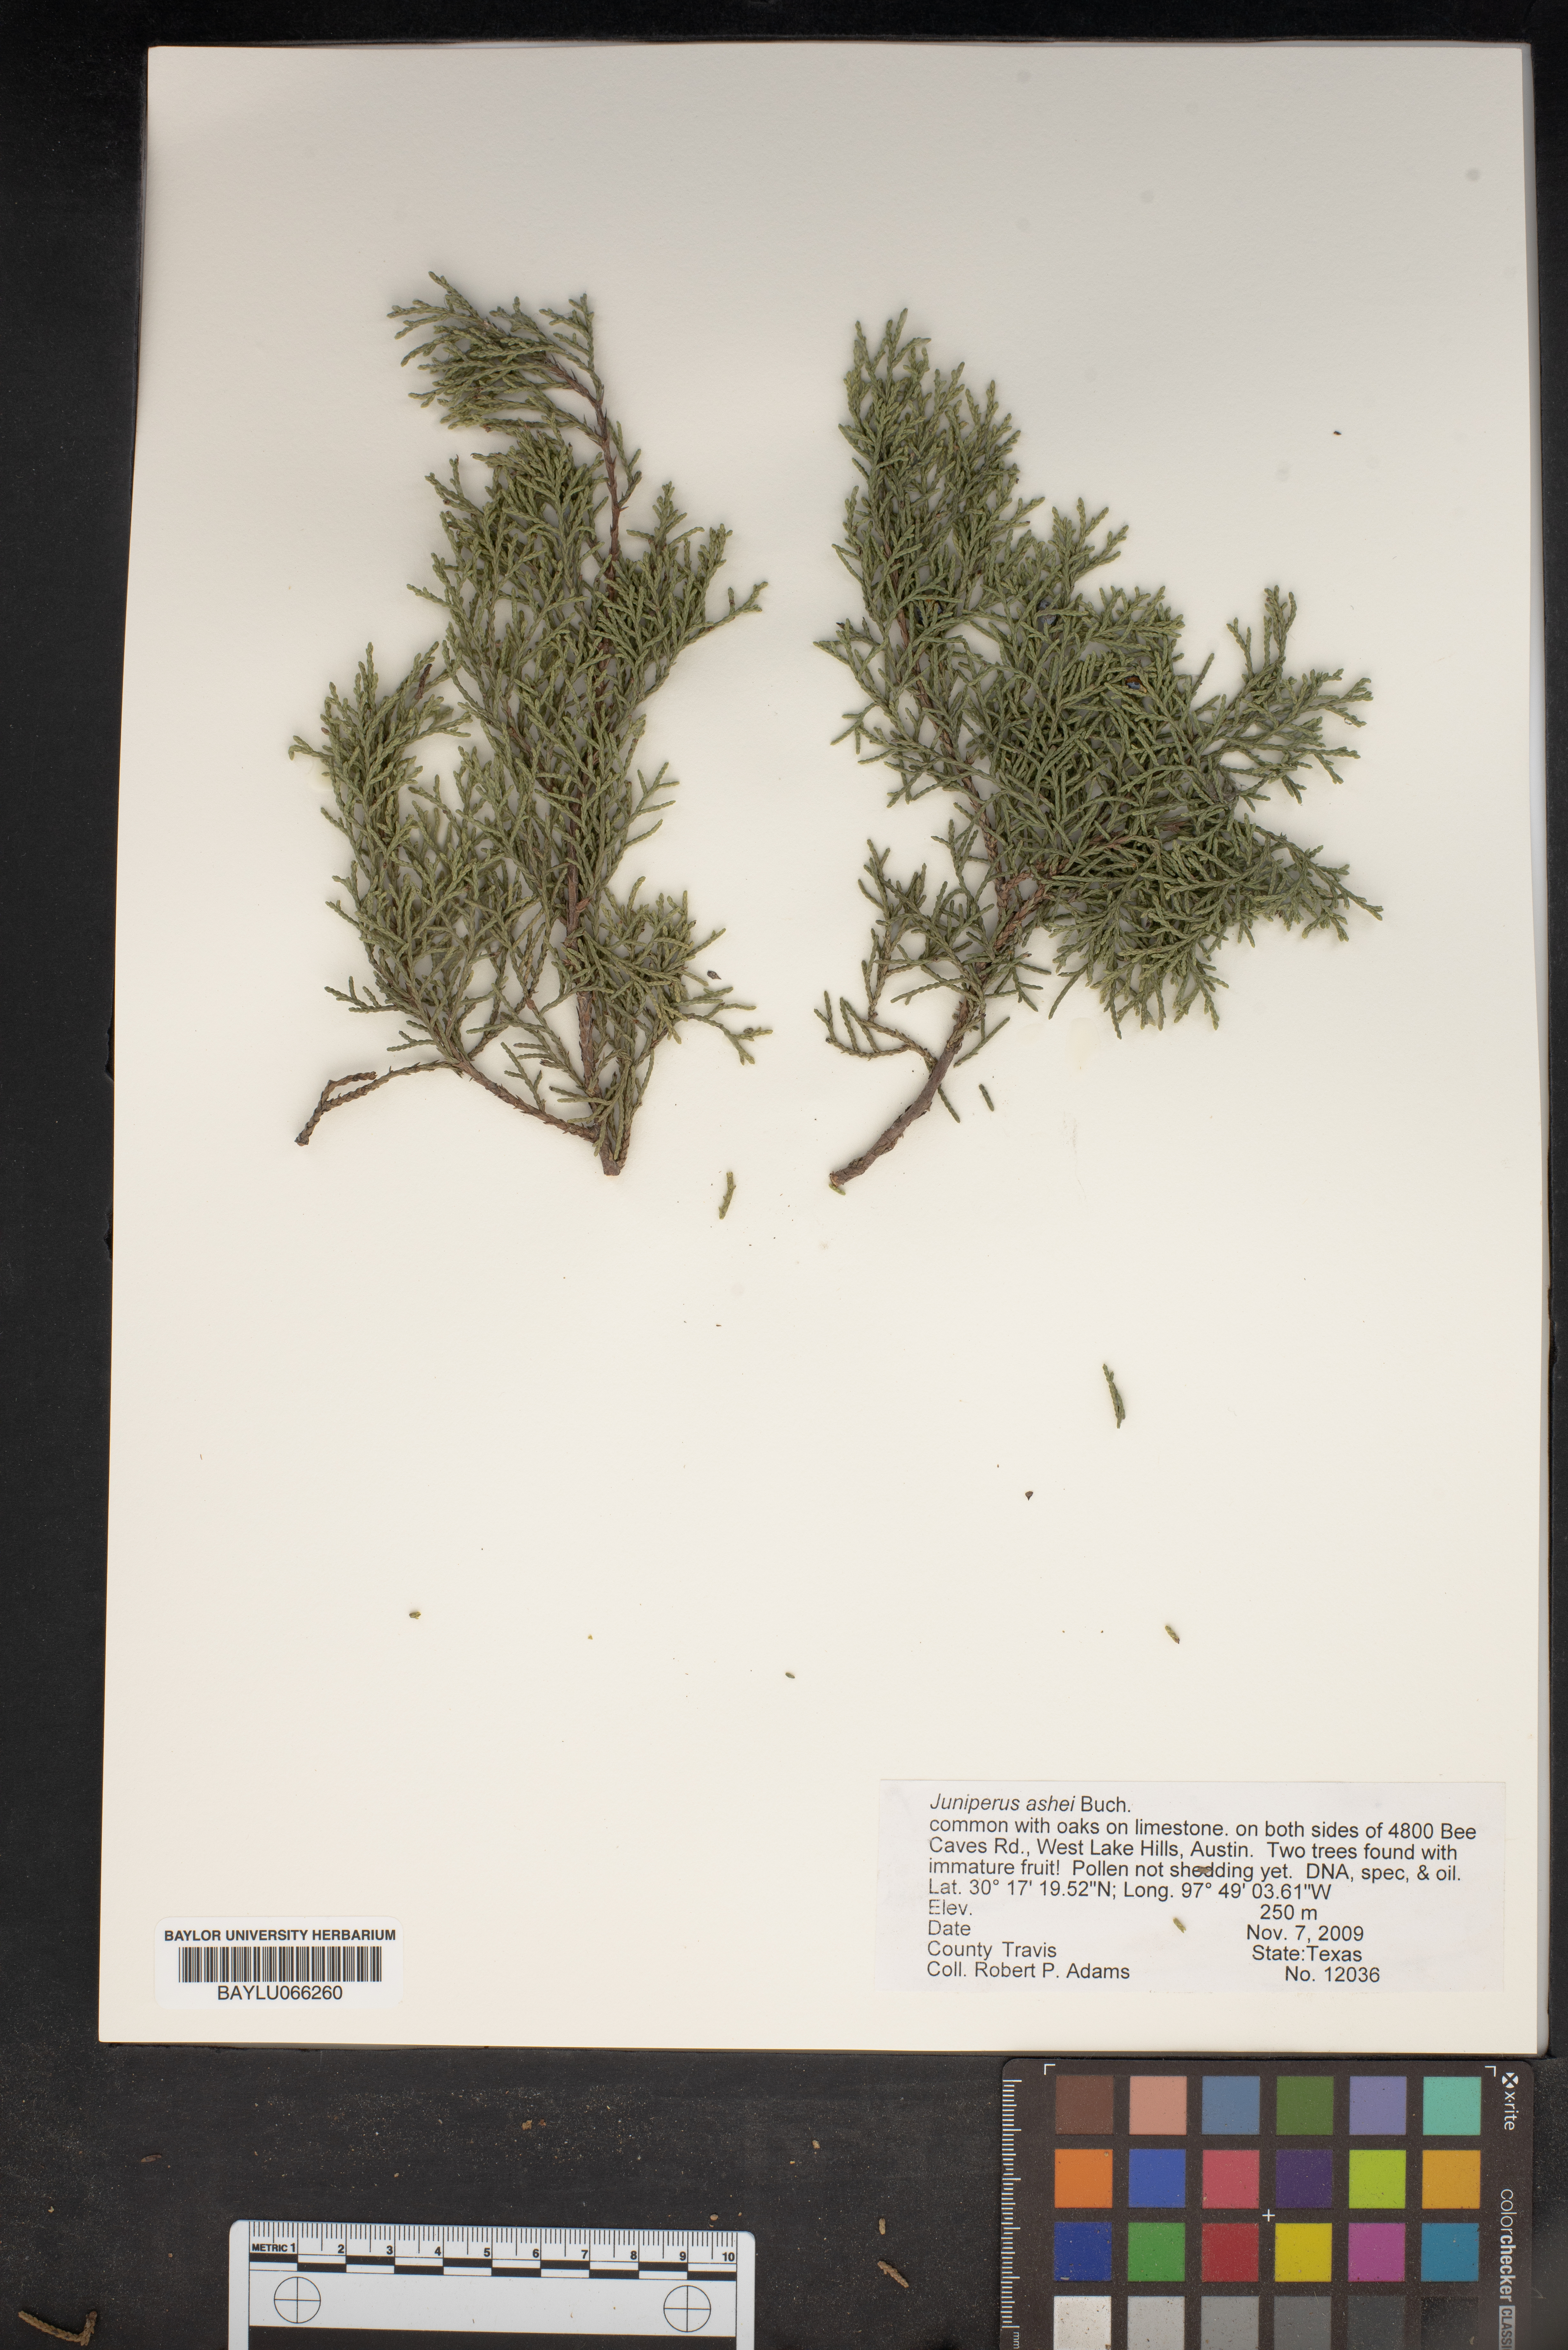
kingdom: Plantae
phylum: Tracheophyta
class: Pinopsida
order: Pinales
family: Cupressaceae
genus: Juniperus
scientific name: Juniperus ashei
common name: Mexican juniper
